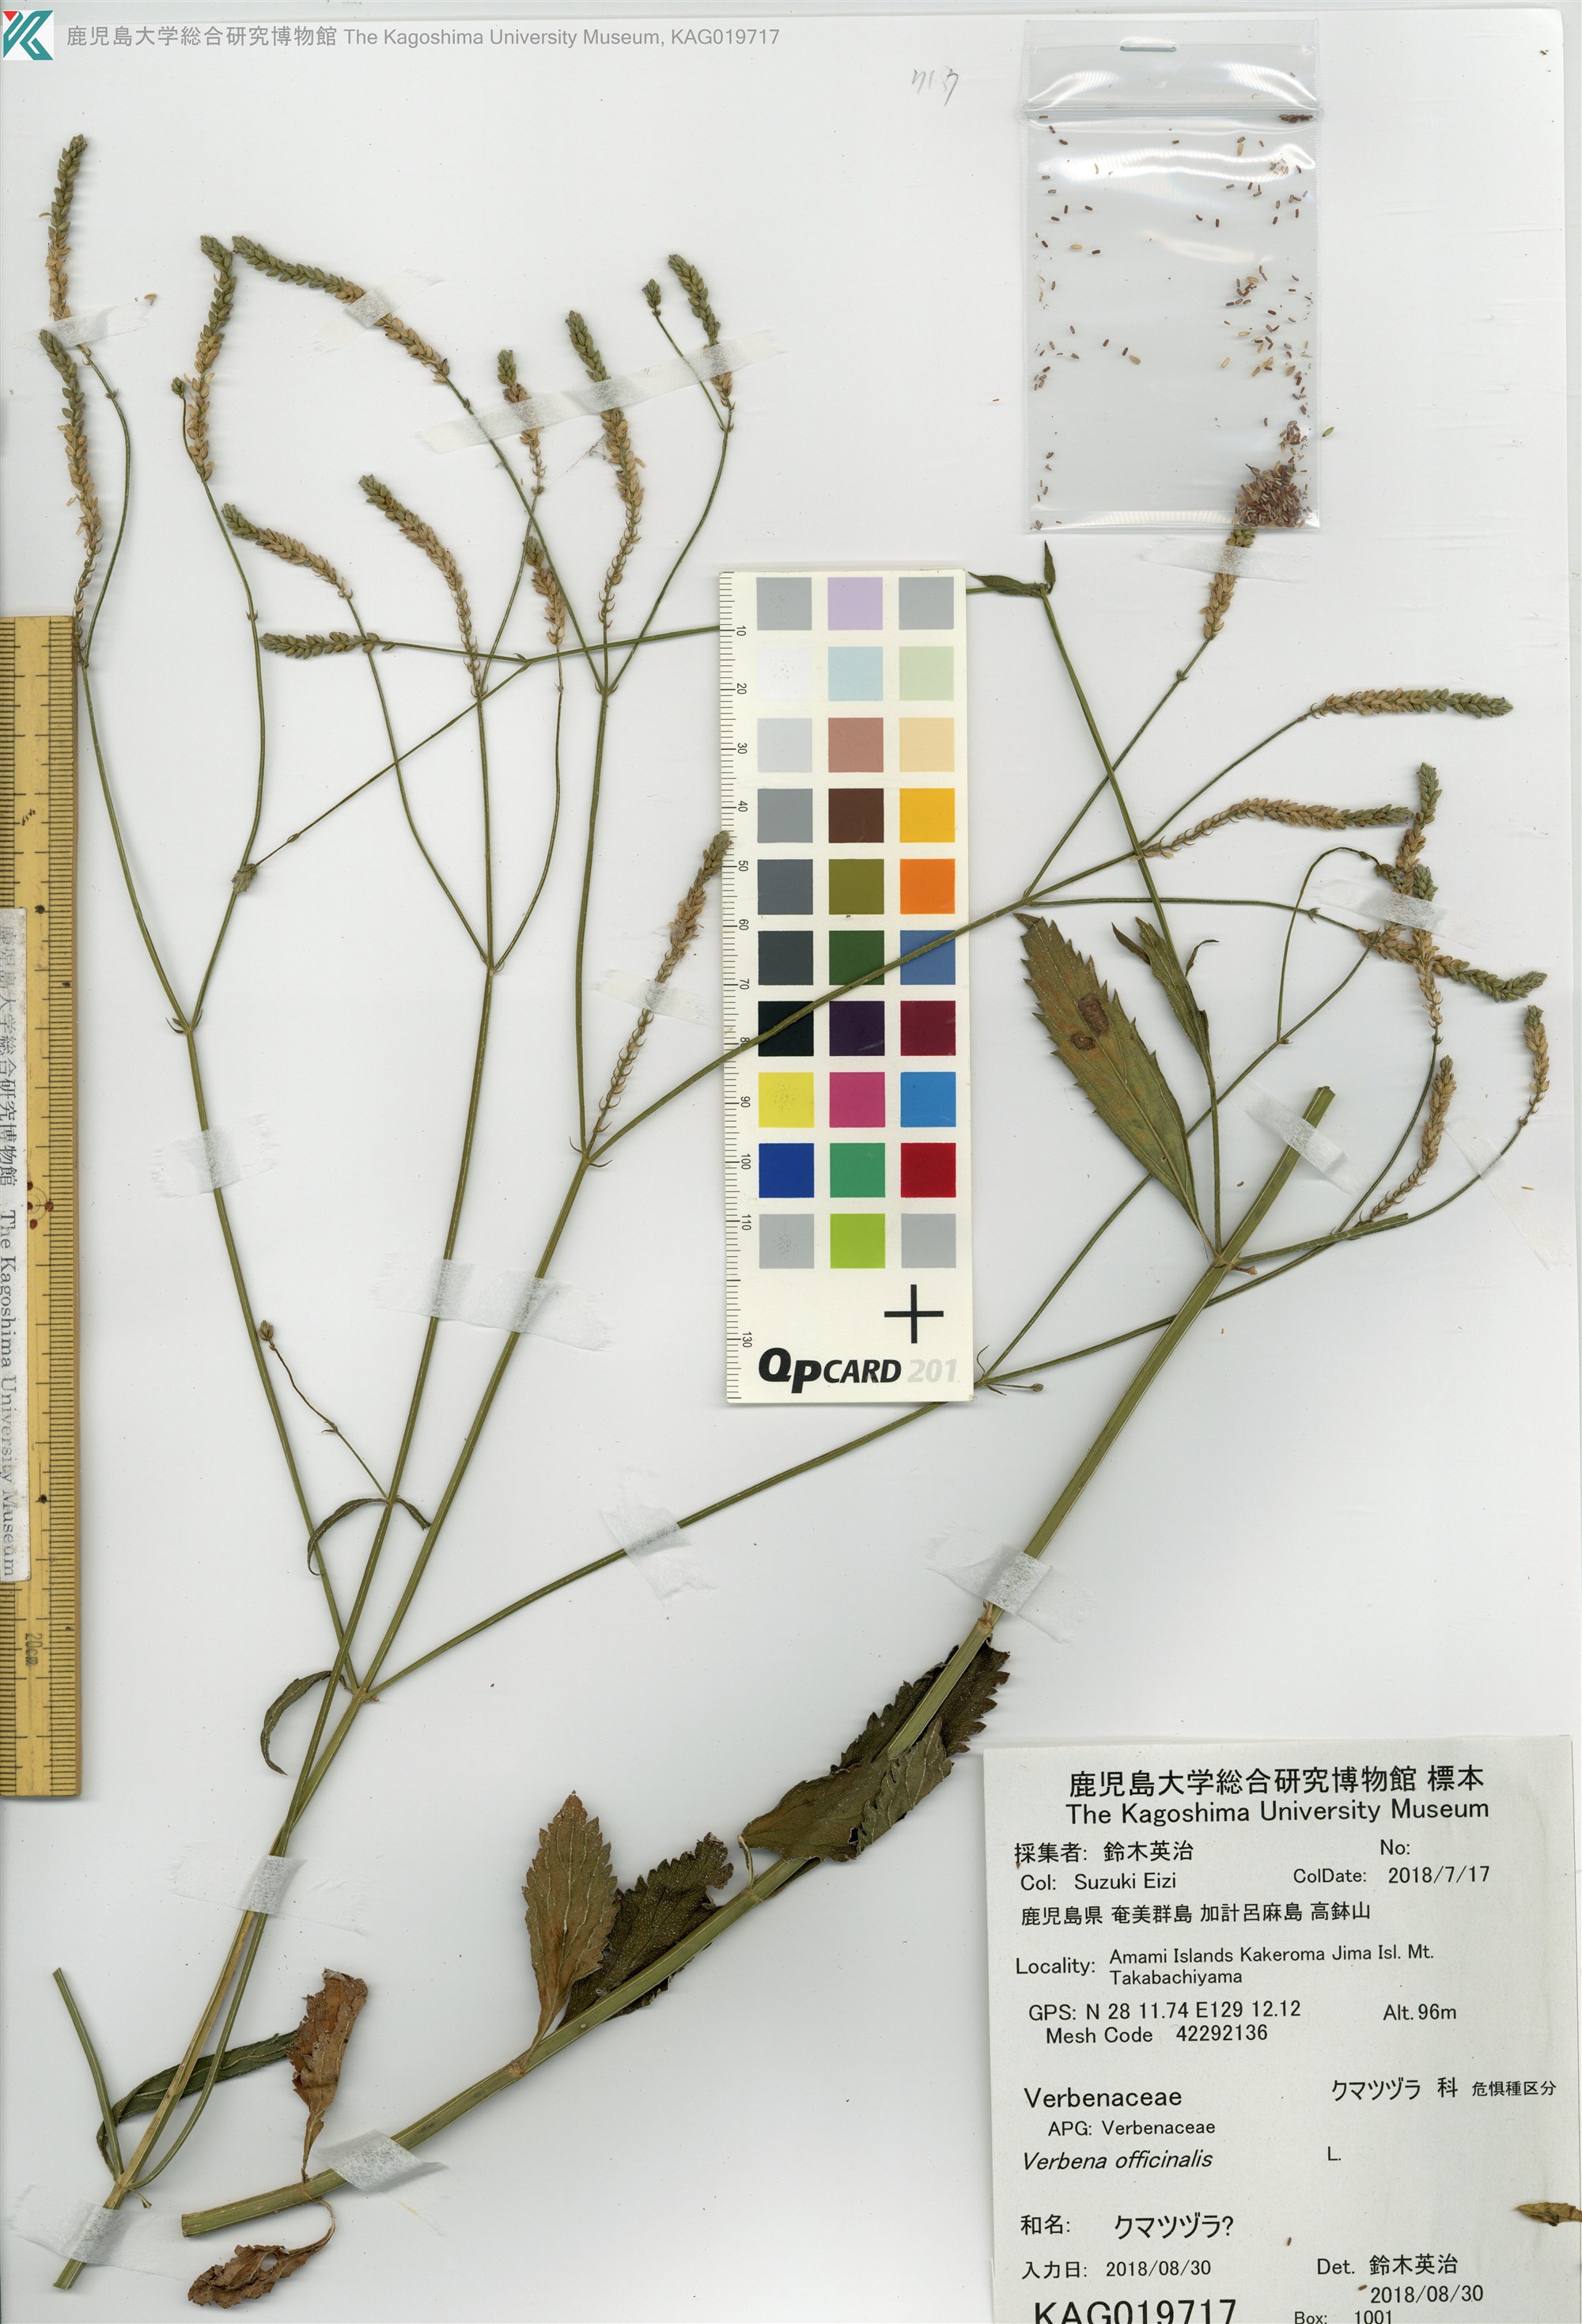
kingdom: Plantae
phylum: Tracheophyta
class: Magnoliopsida
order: Lamiales
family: Verbenaceae
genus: Verbena
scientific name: Verbena litoralis
